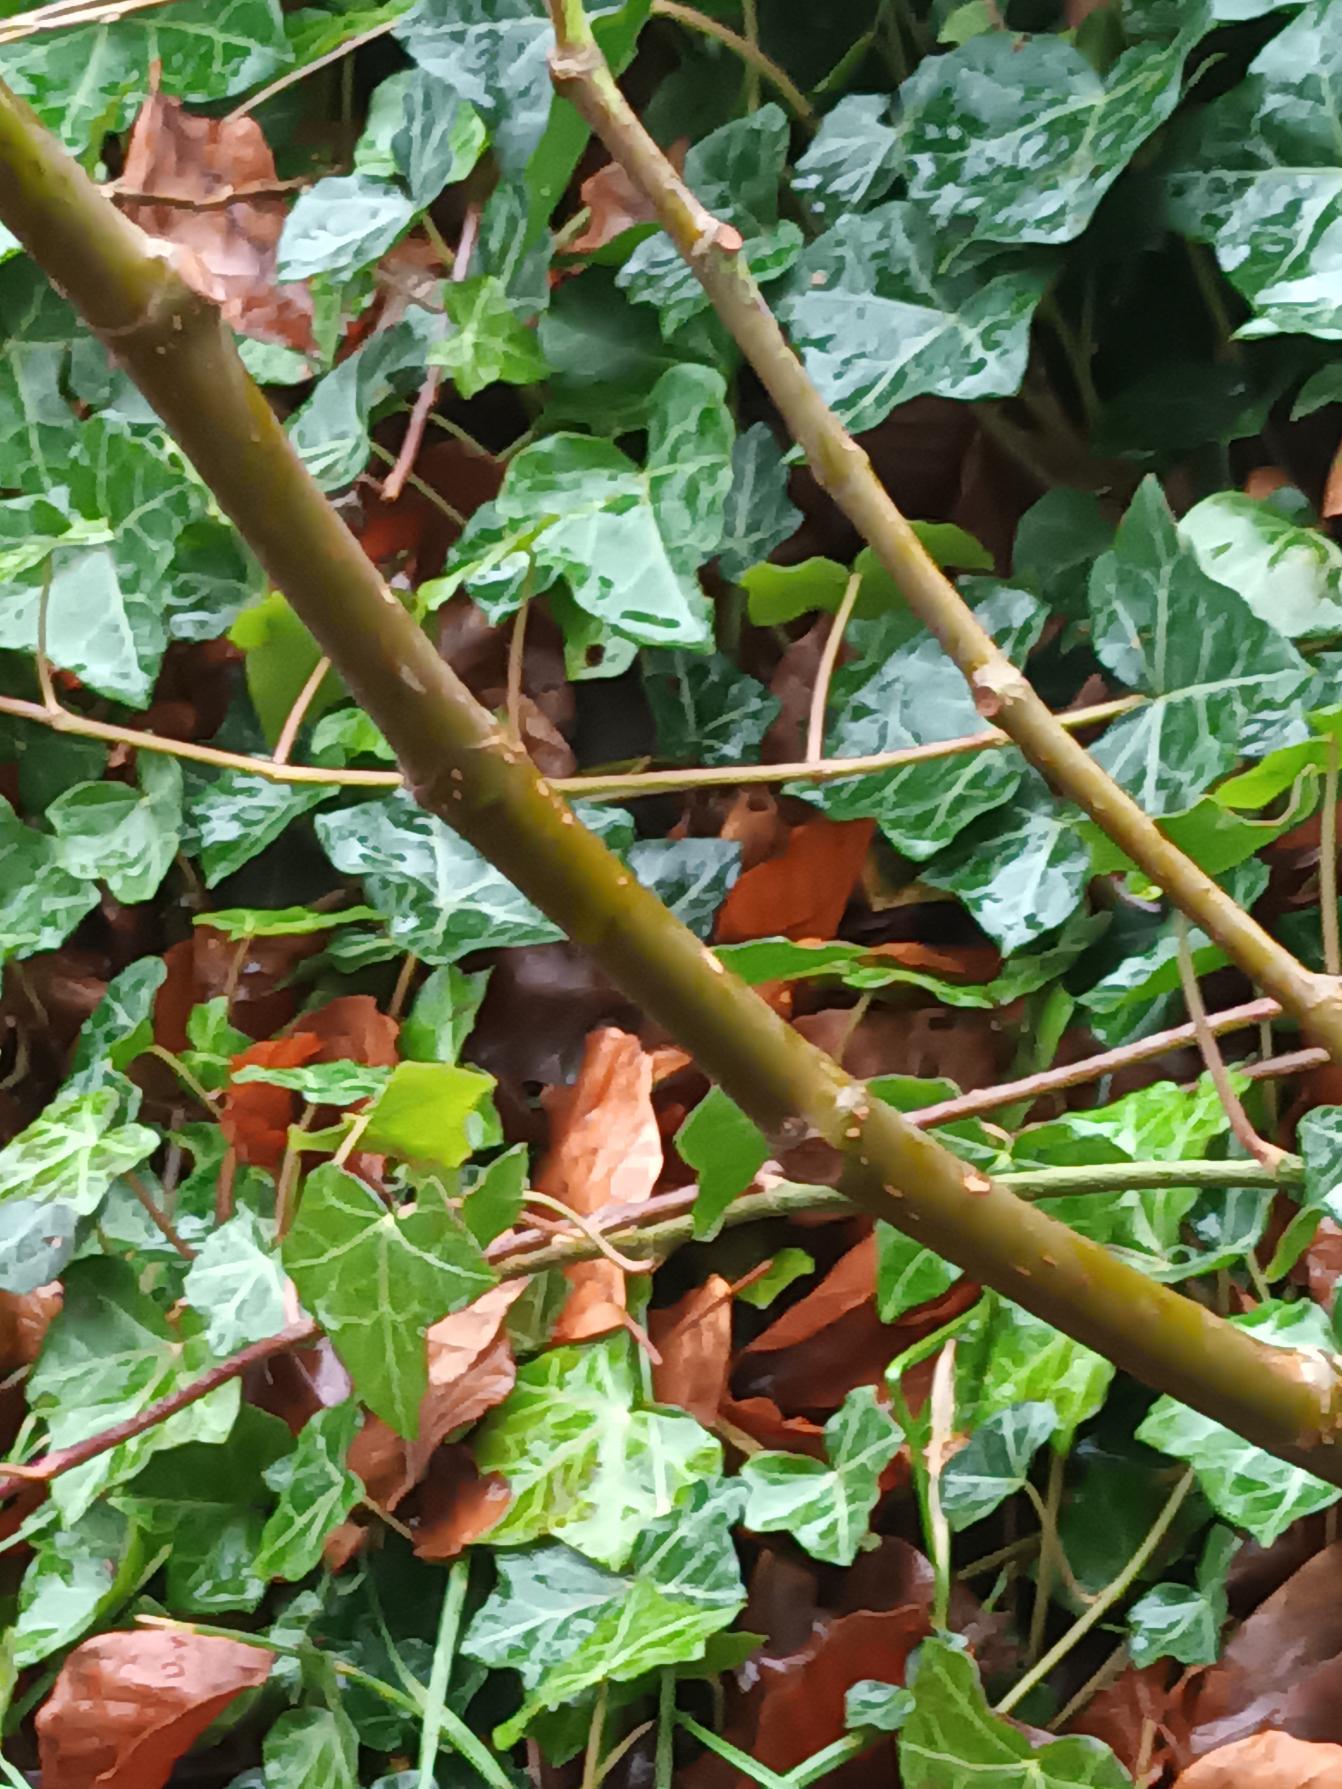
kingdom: Plantae
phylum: Tracheophyta
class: Magnoliopsida
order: Rosales
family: Moraceae
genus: Ficus
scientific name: Ficus carica
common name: Figen
